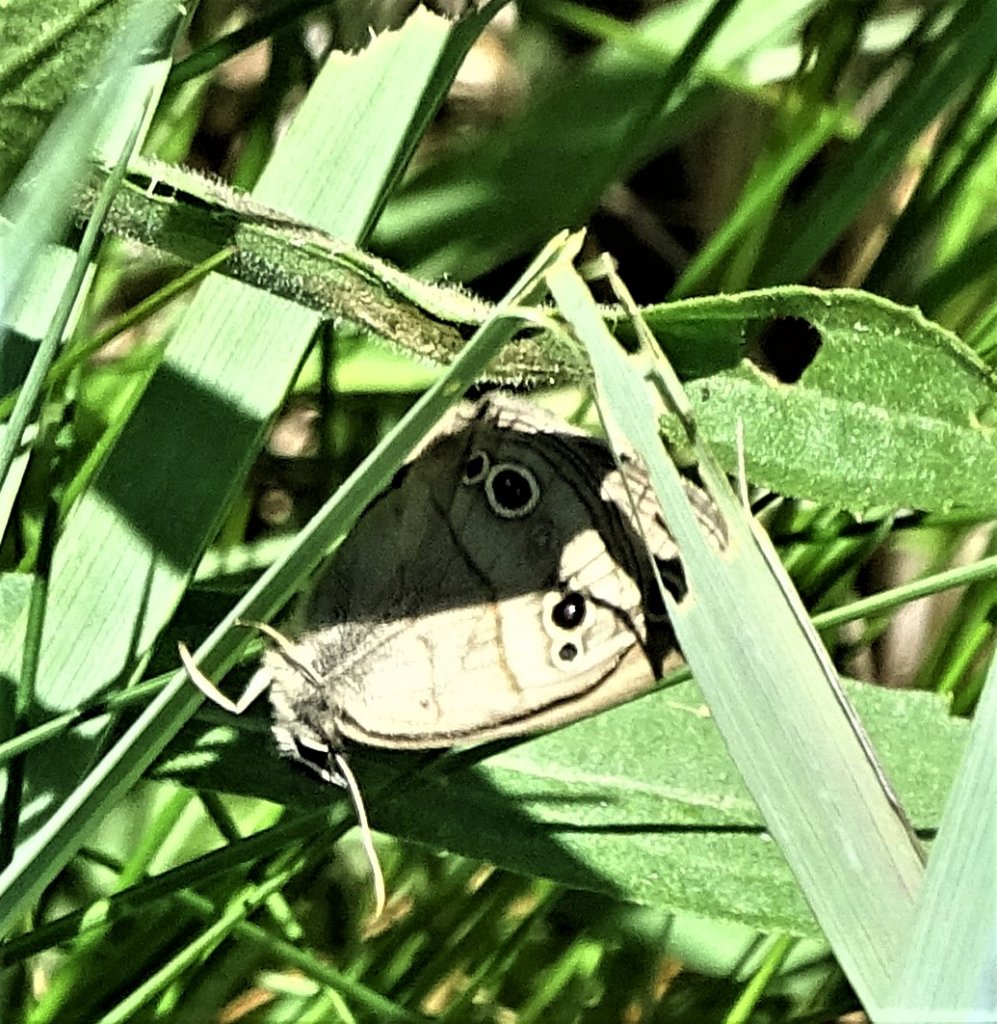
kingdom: Animalia
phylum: Arthropoda
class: Insecta
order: Lepidoptera
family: Nymphalidae
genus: Euptychia
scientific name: Euptychia cymela
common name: Little Wood Satyr
